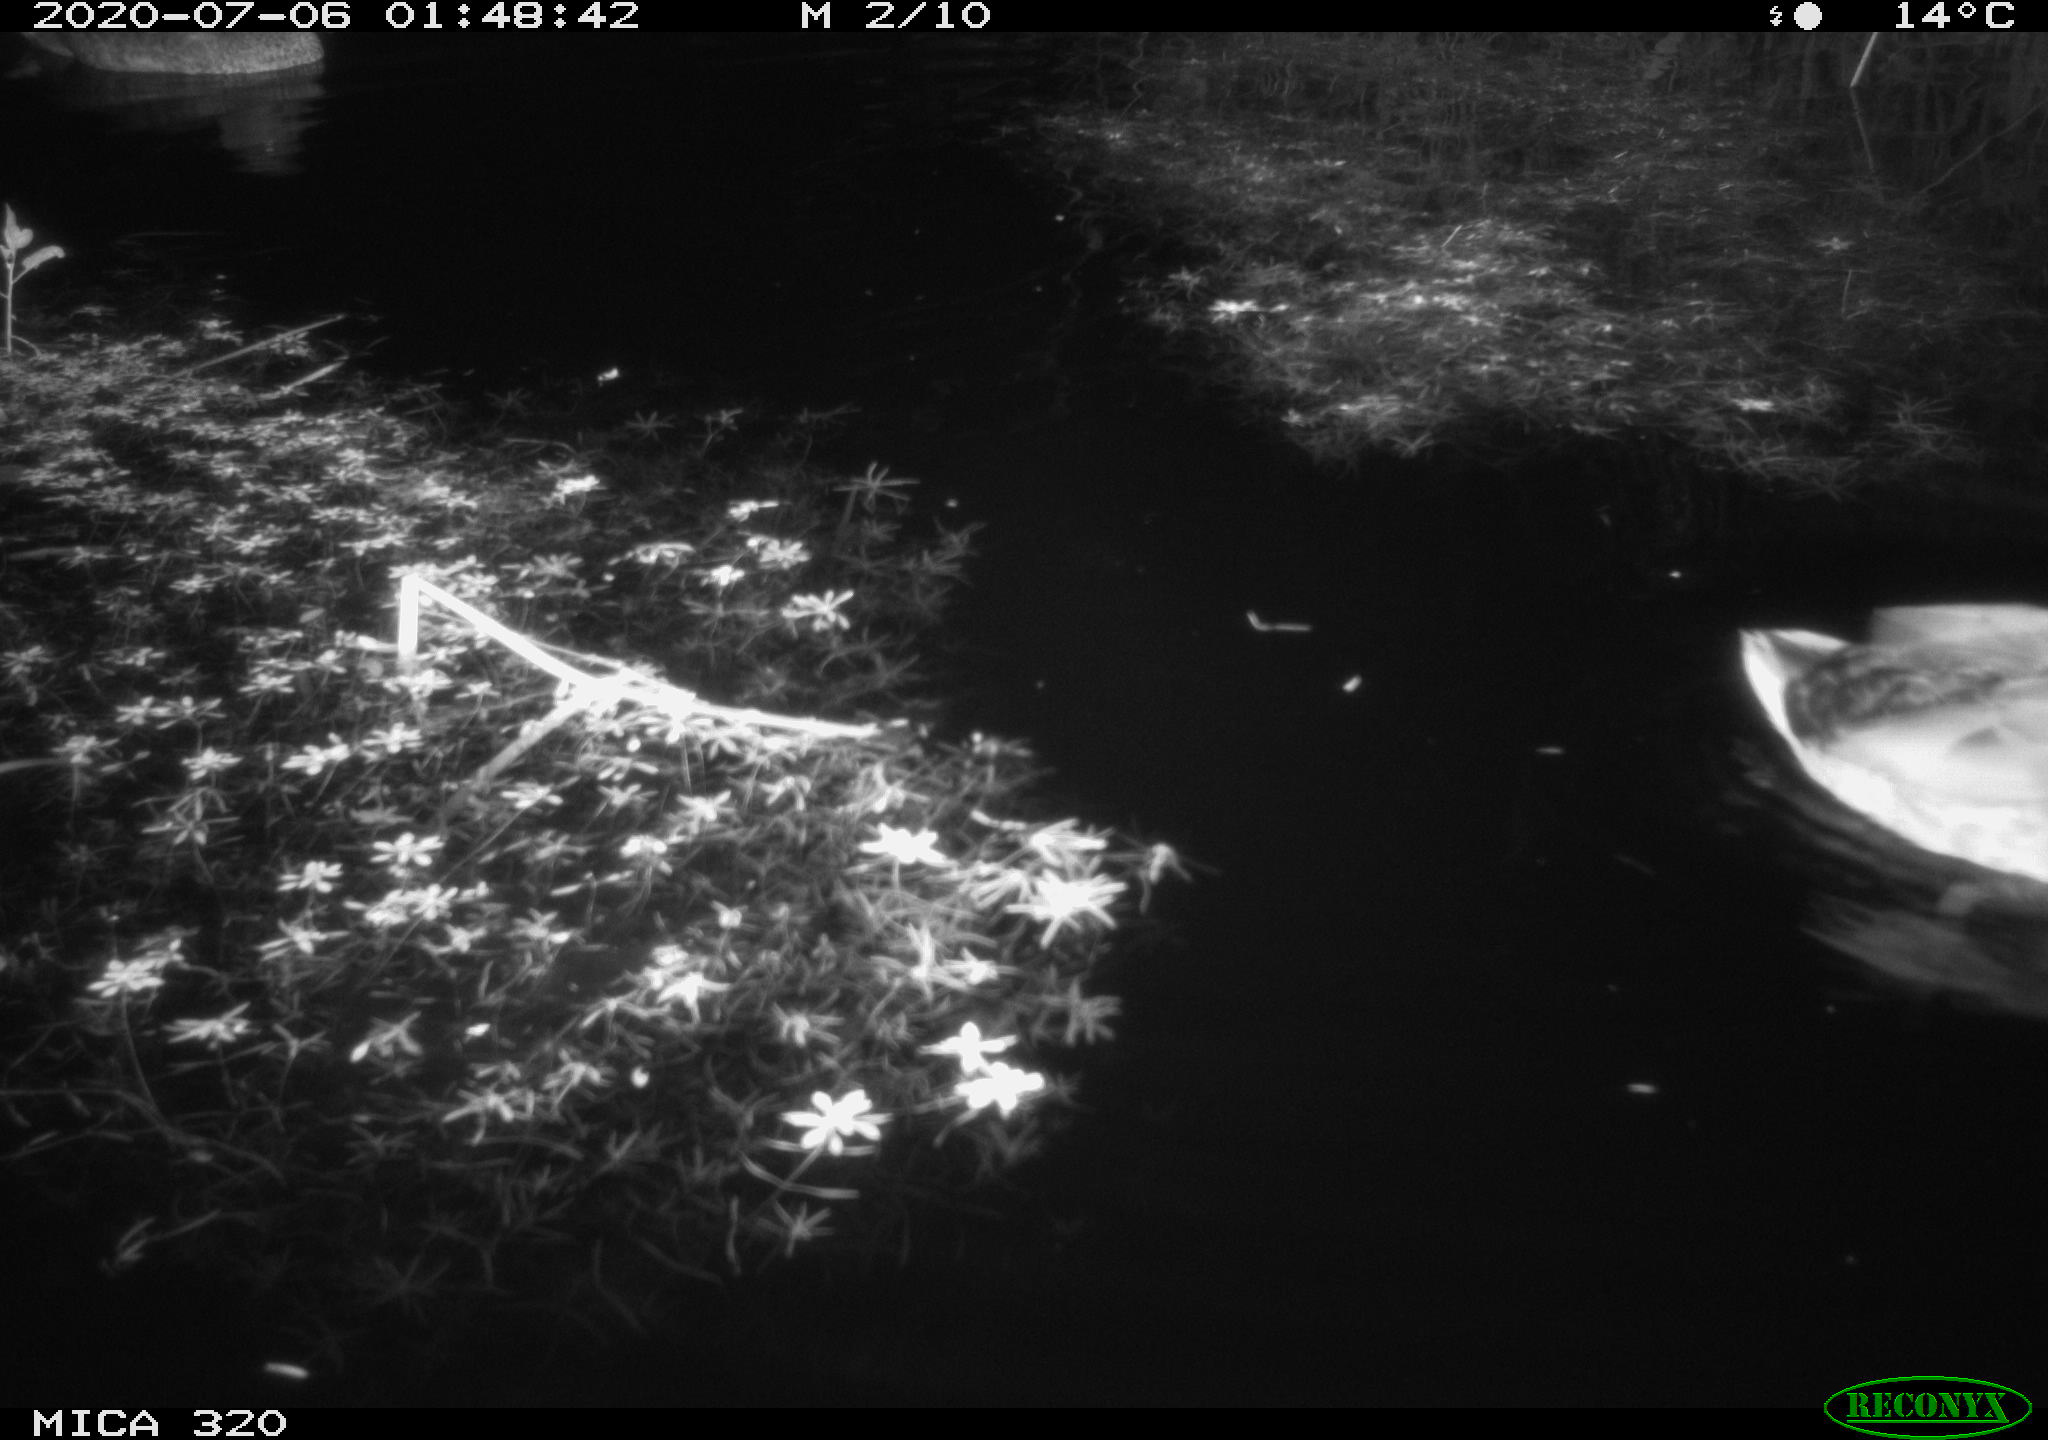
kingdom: Animalia
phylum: Chordata
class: Aves
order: Anseriformes
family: Anatidae
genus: Anas
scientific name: Anas platyrhynchos
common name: Mallard
